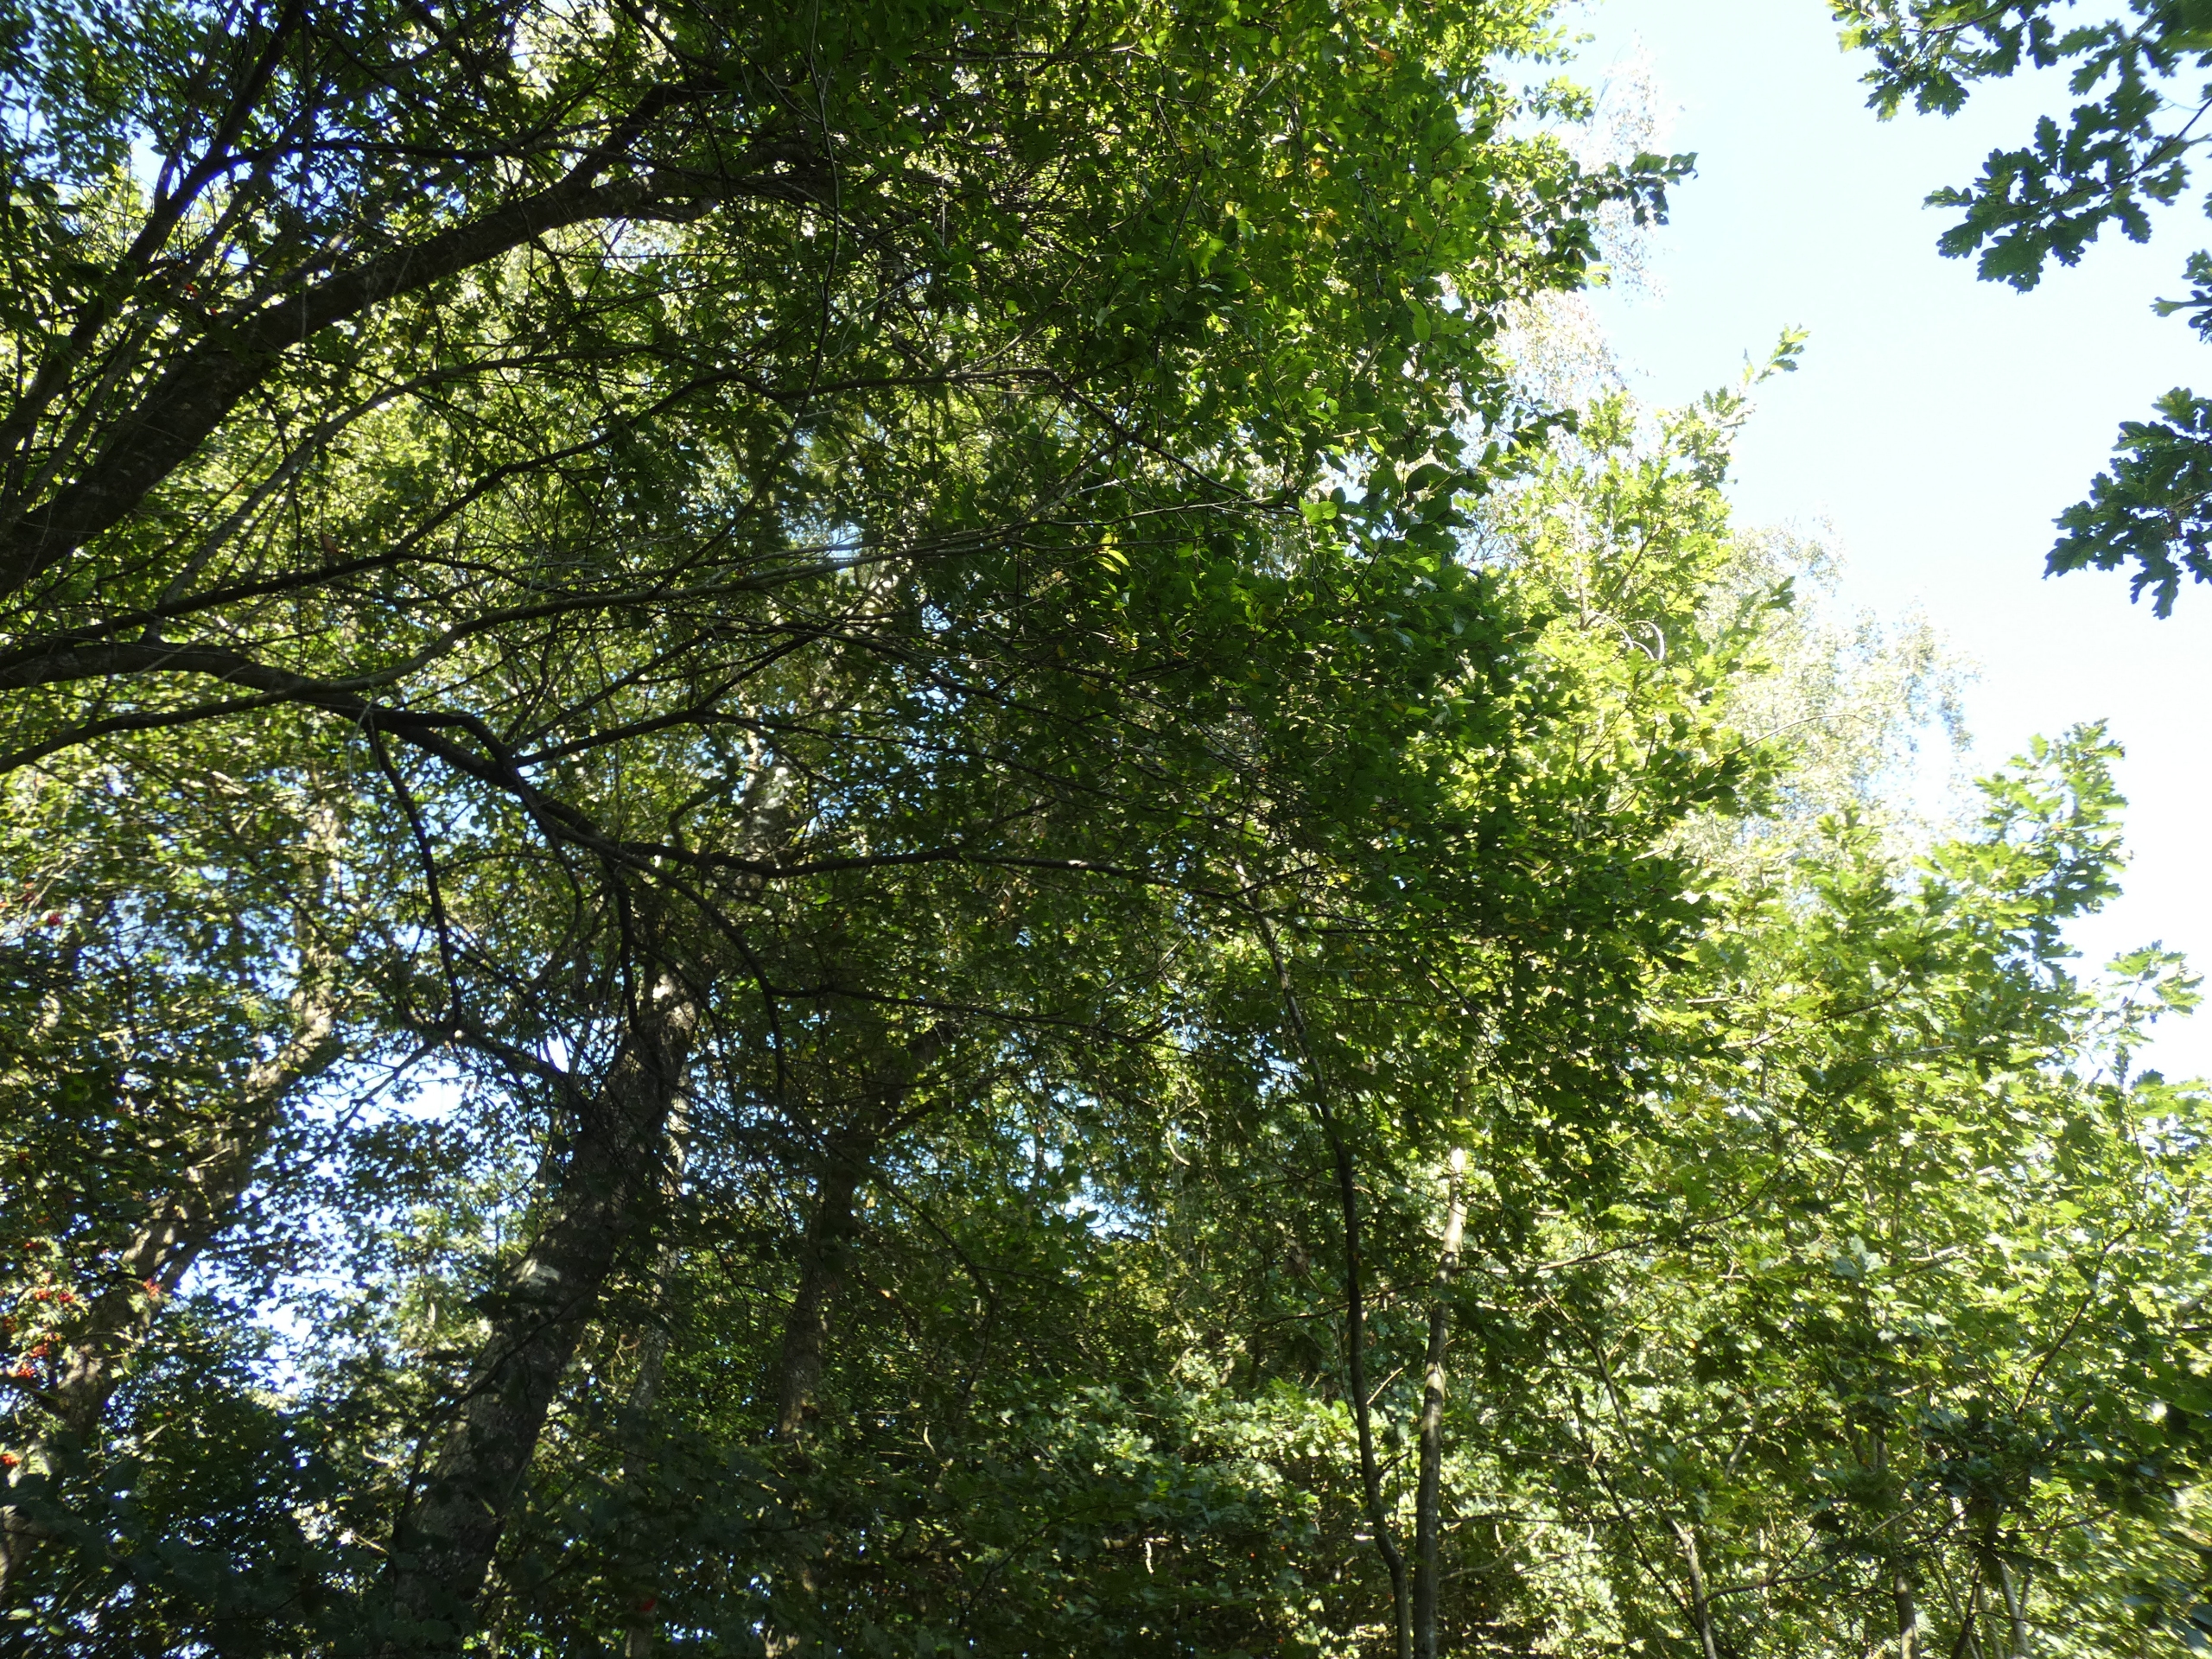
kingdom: Plantae
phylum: Tracheophyta
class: Magnoliopsida
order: Rosales
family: Rosaceae
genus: Prunus
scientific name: Prunus cerasifera
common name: Mirabel
